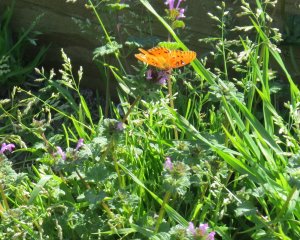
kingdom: Animalia
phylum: Arthropoda
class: Insecta
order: Lepidoptera
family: Nymphalidae
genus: Dione
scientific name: Dione vanillae
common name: Gulf Fritillary
